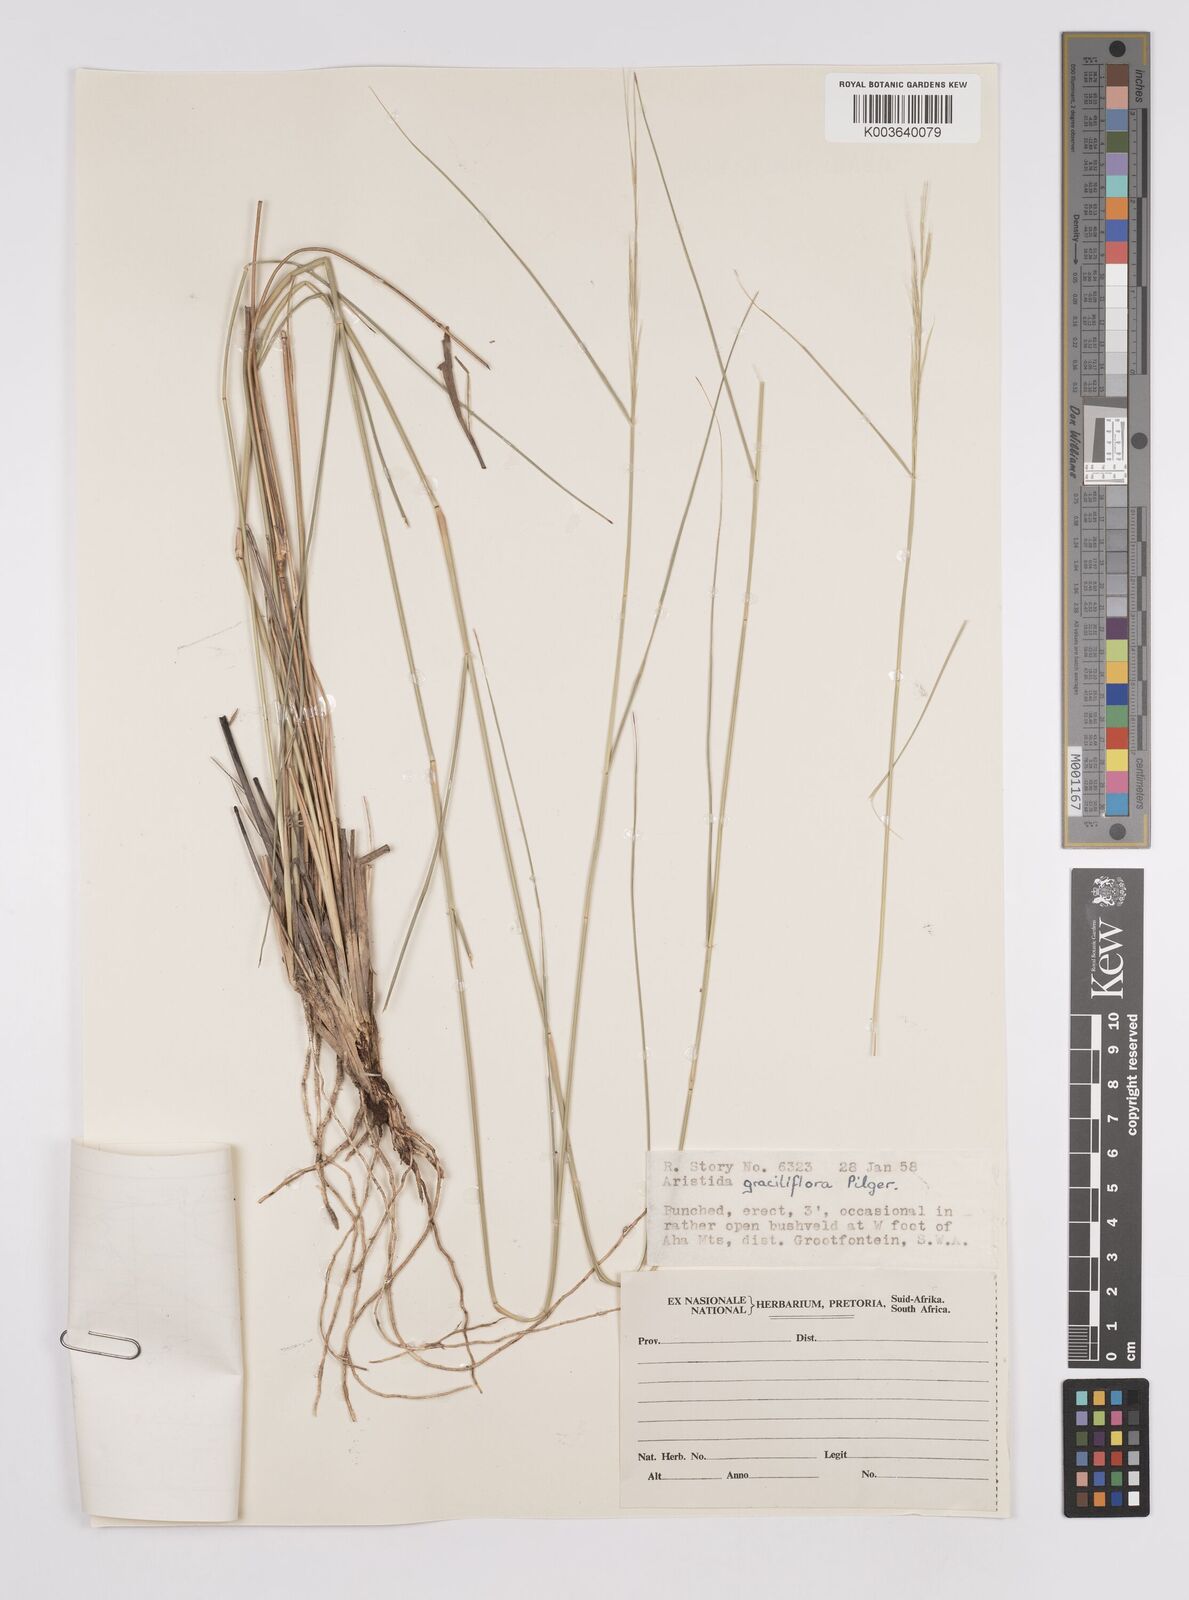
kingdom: Plantae
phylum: Tracheophyta
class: Liliopsida
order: Poales
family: Poaceae
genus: Aristida
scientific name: Aristida stipitata
